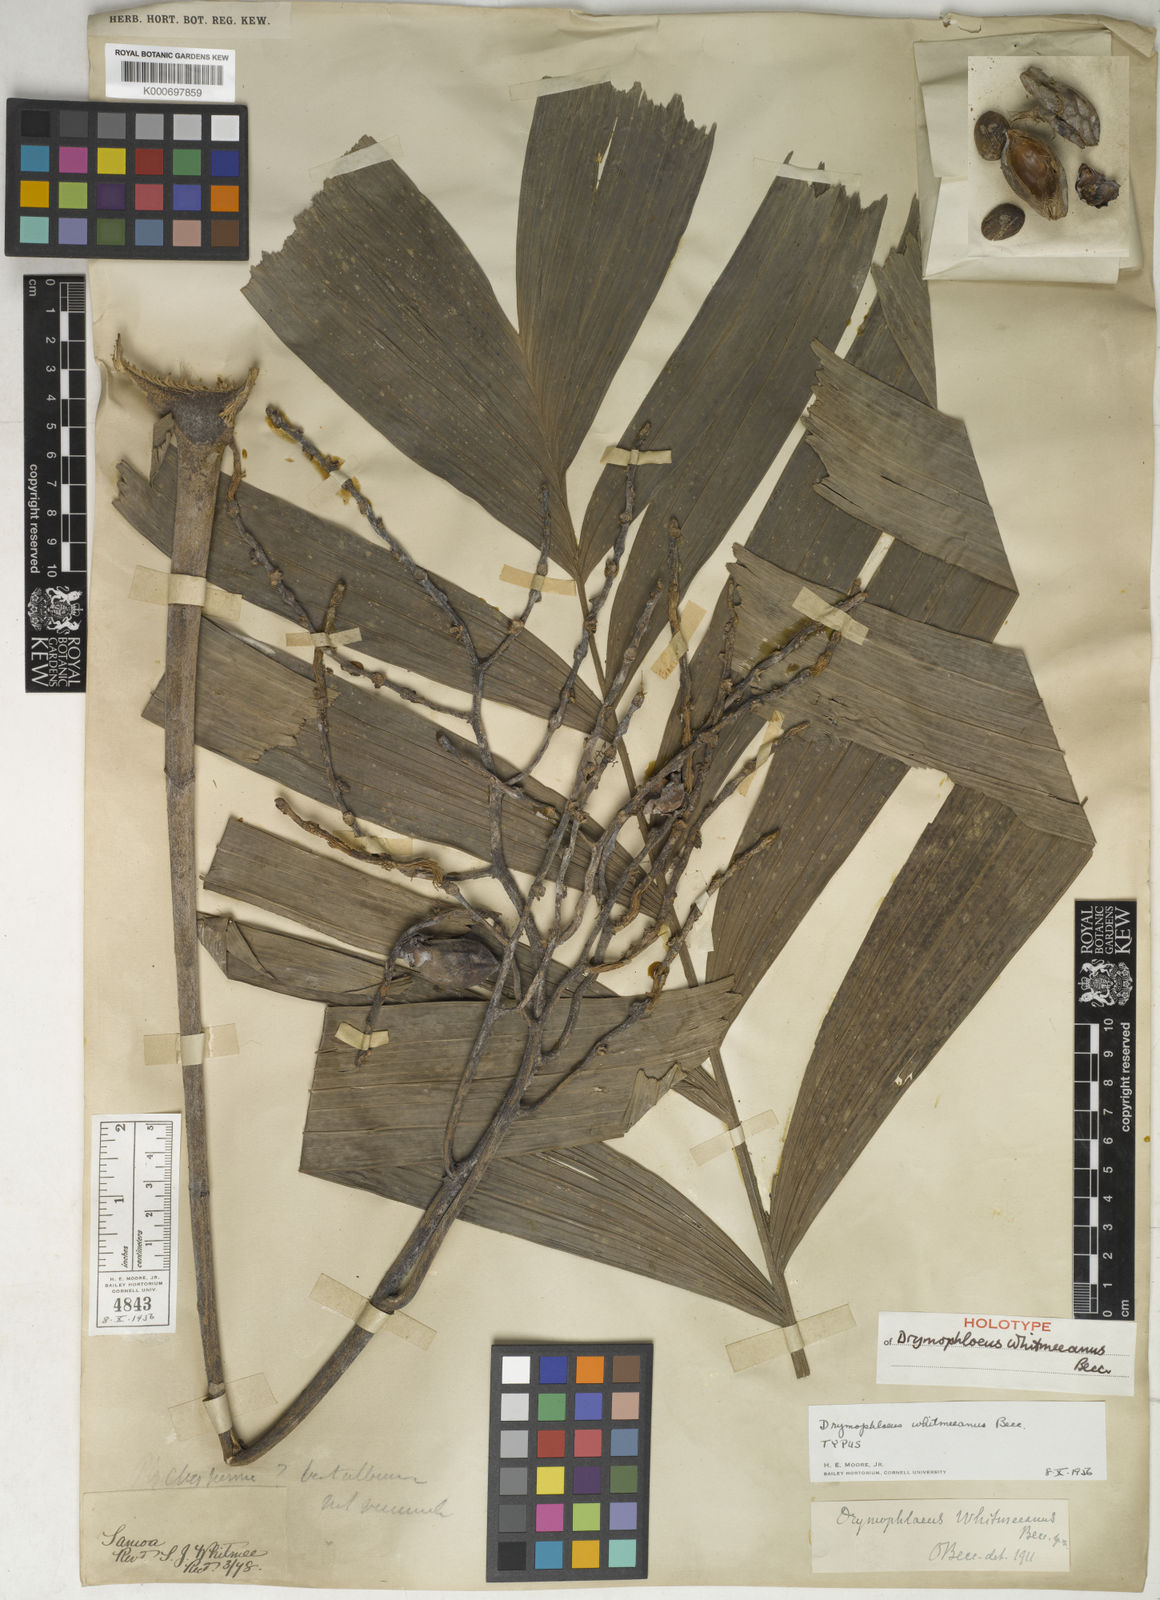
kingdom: Plantae
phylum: Tracheophyta
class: Liliopsida
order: Arecales
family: Arecaceae
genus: Drymophloeus
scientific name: Drymophloeus whitmeeanus
